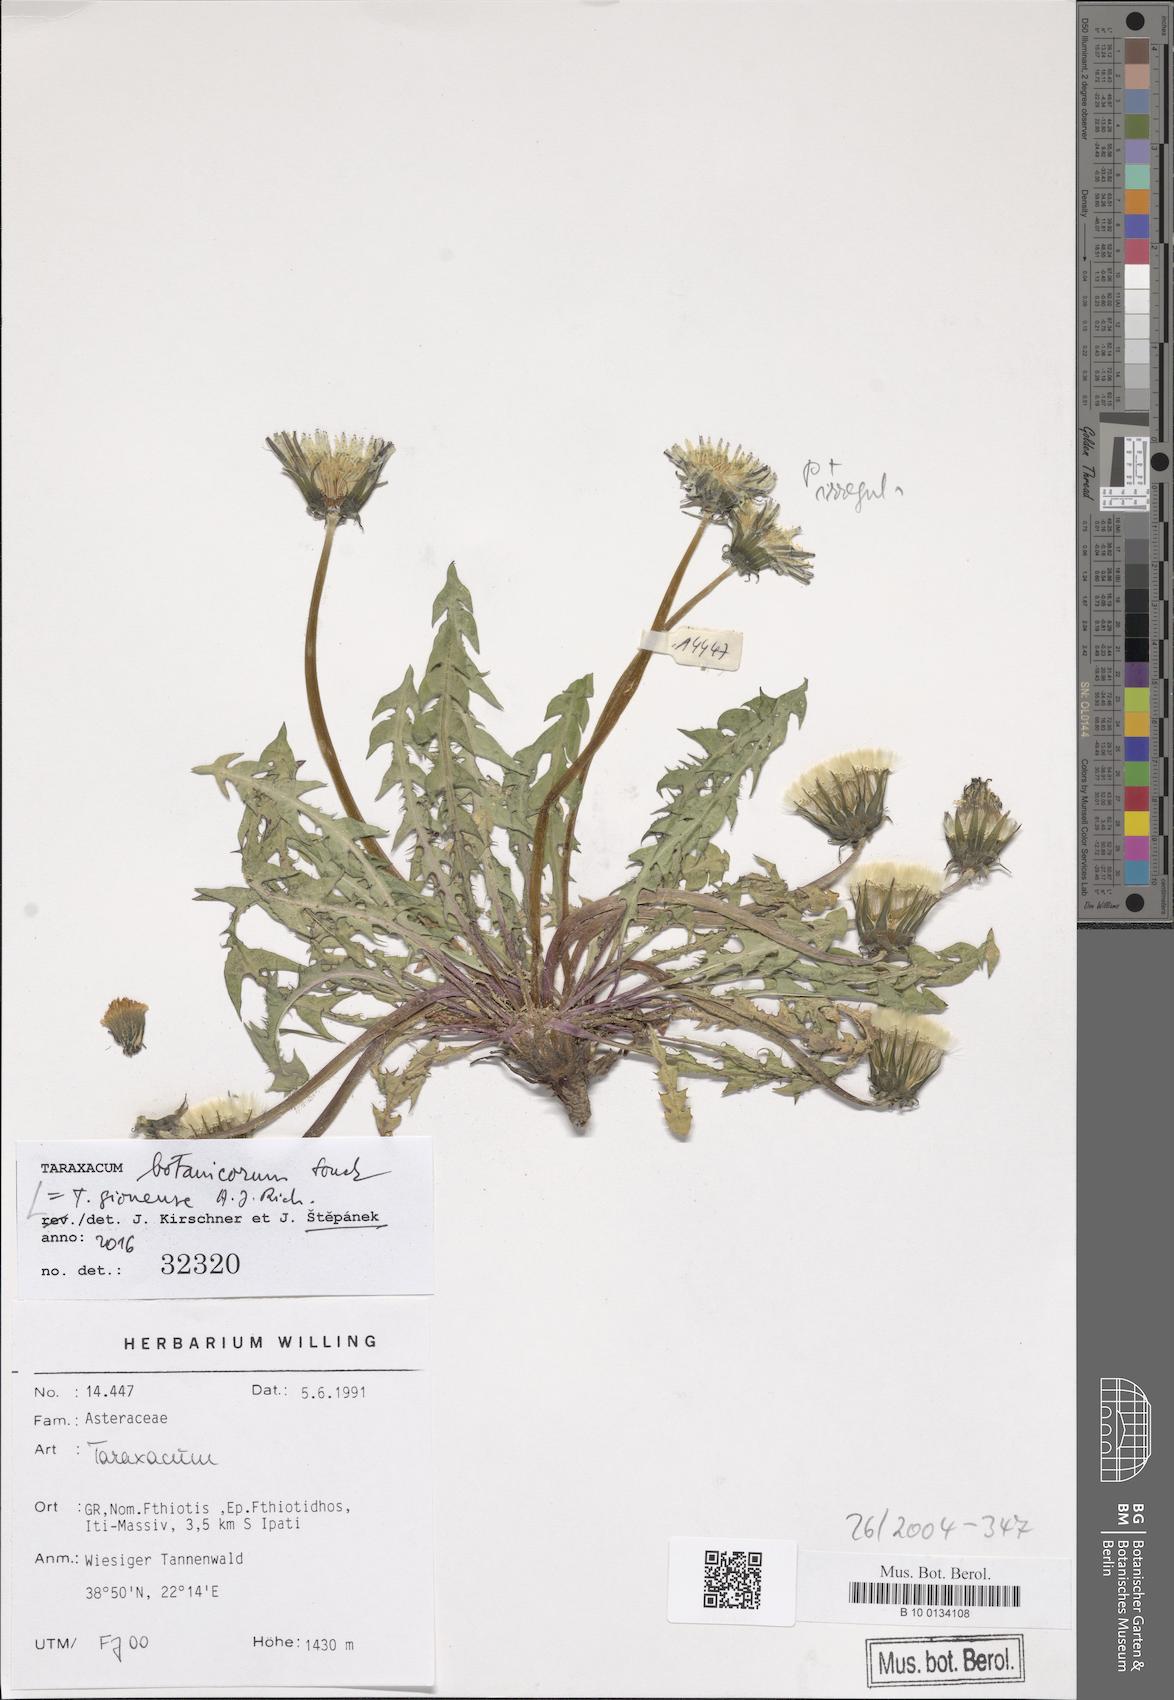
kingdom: Plantae
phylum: Tracheophyta
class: Magnoliopsida
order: Asterales
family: Asteraceae
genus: Taraxacum
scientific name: Taraxacum botanicorum
